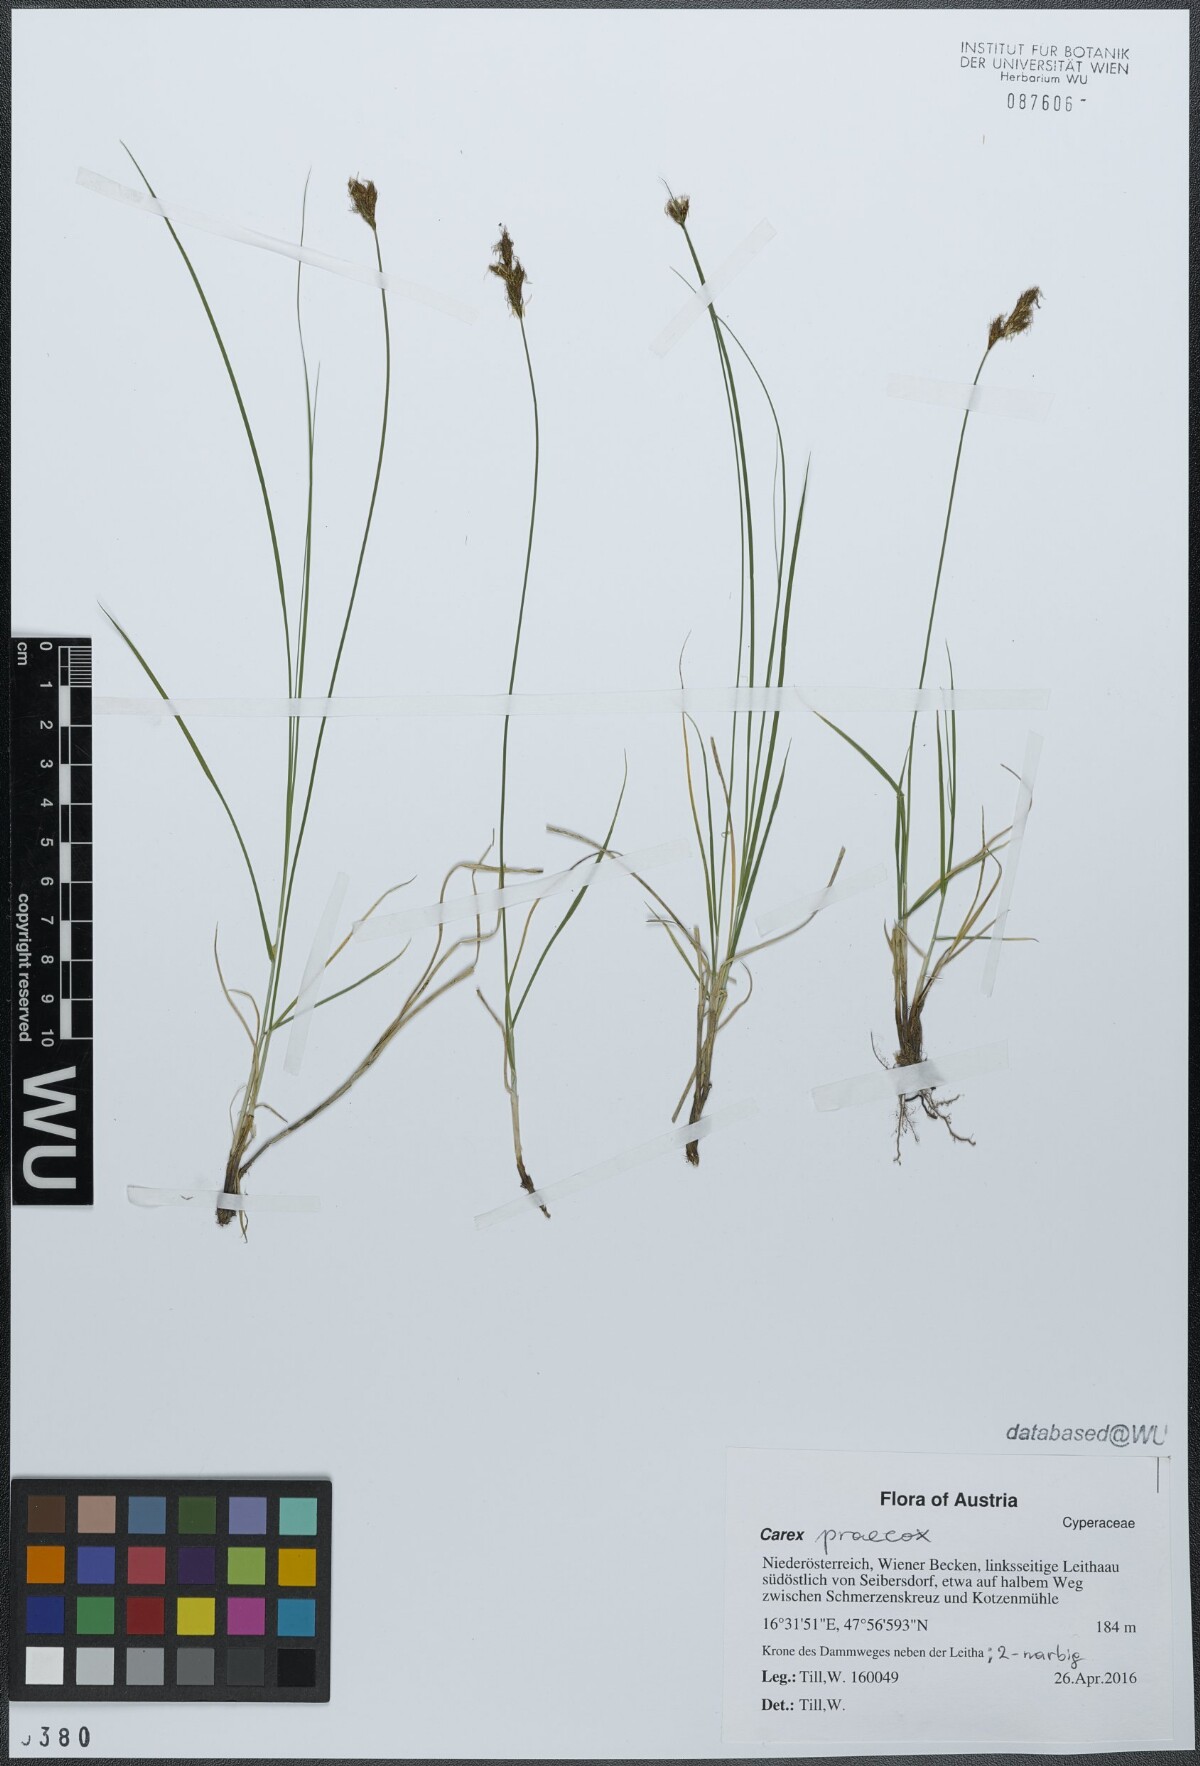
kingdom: Plantae
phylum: Tracheophyta
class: Liliopsida
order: Poales
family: Cyperaceae
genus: Carex
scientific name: Carex praecox
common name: Early sedge
